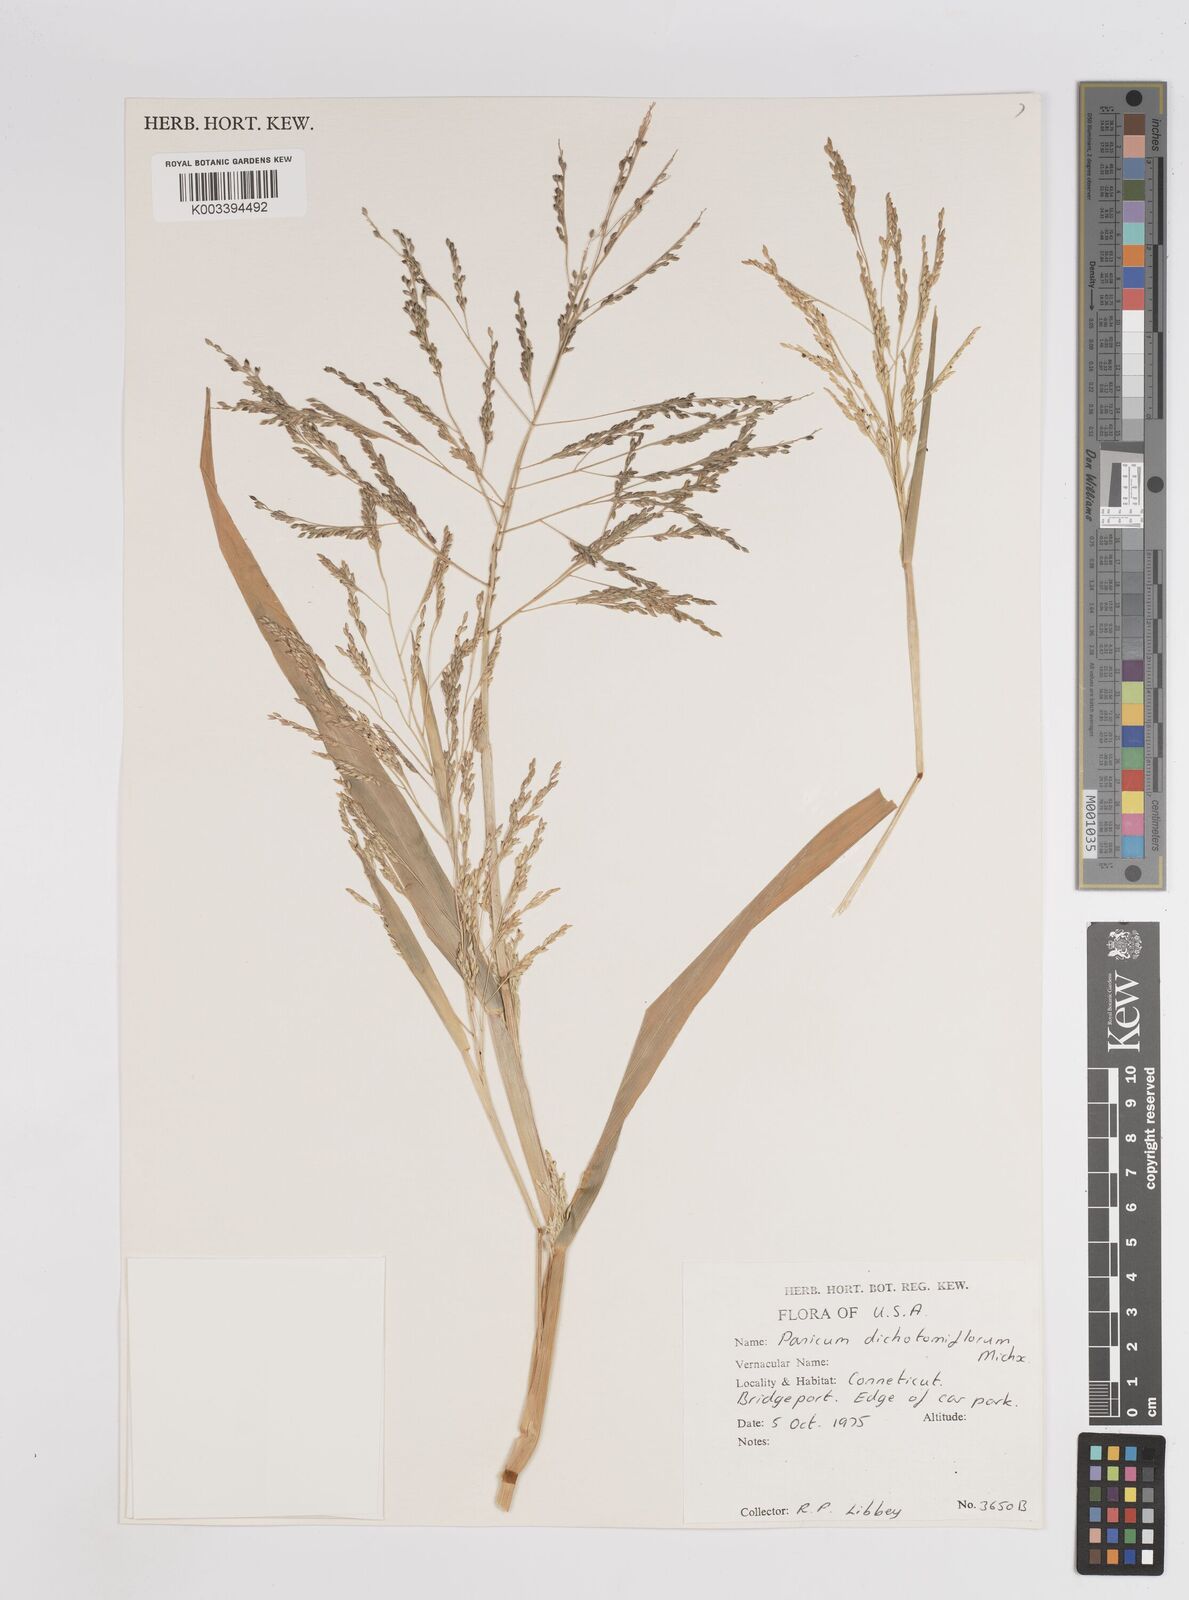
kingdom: Plantae
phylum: Tracheophyta
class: Liliopsida
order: Poales
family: Poaceae
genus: Panicum
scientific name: Panicum dichotomiflorum
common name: Autumn millet
